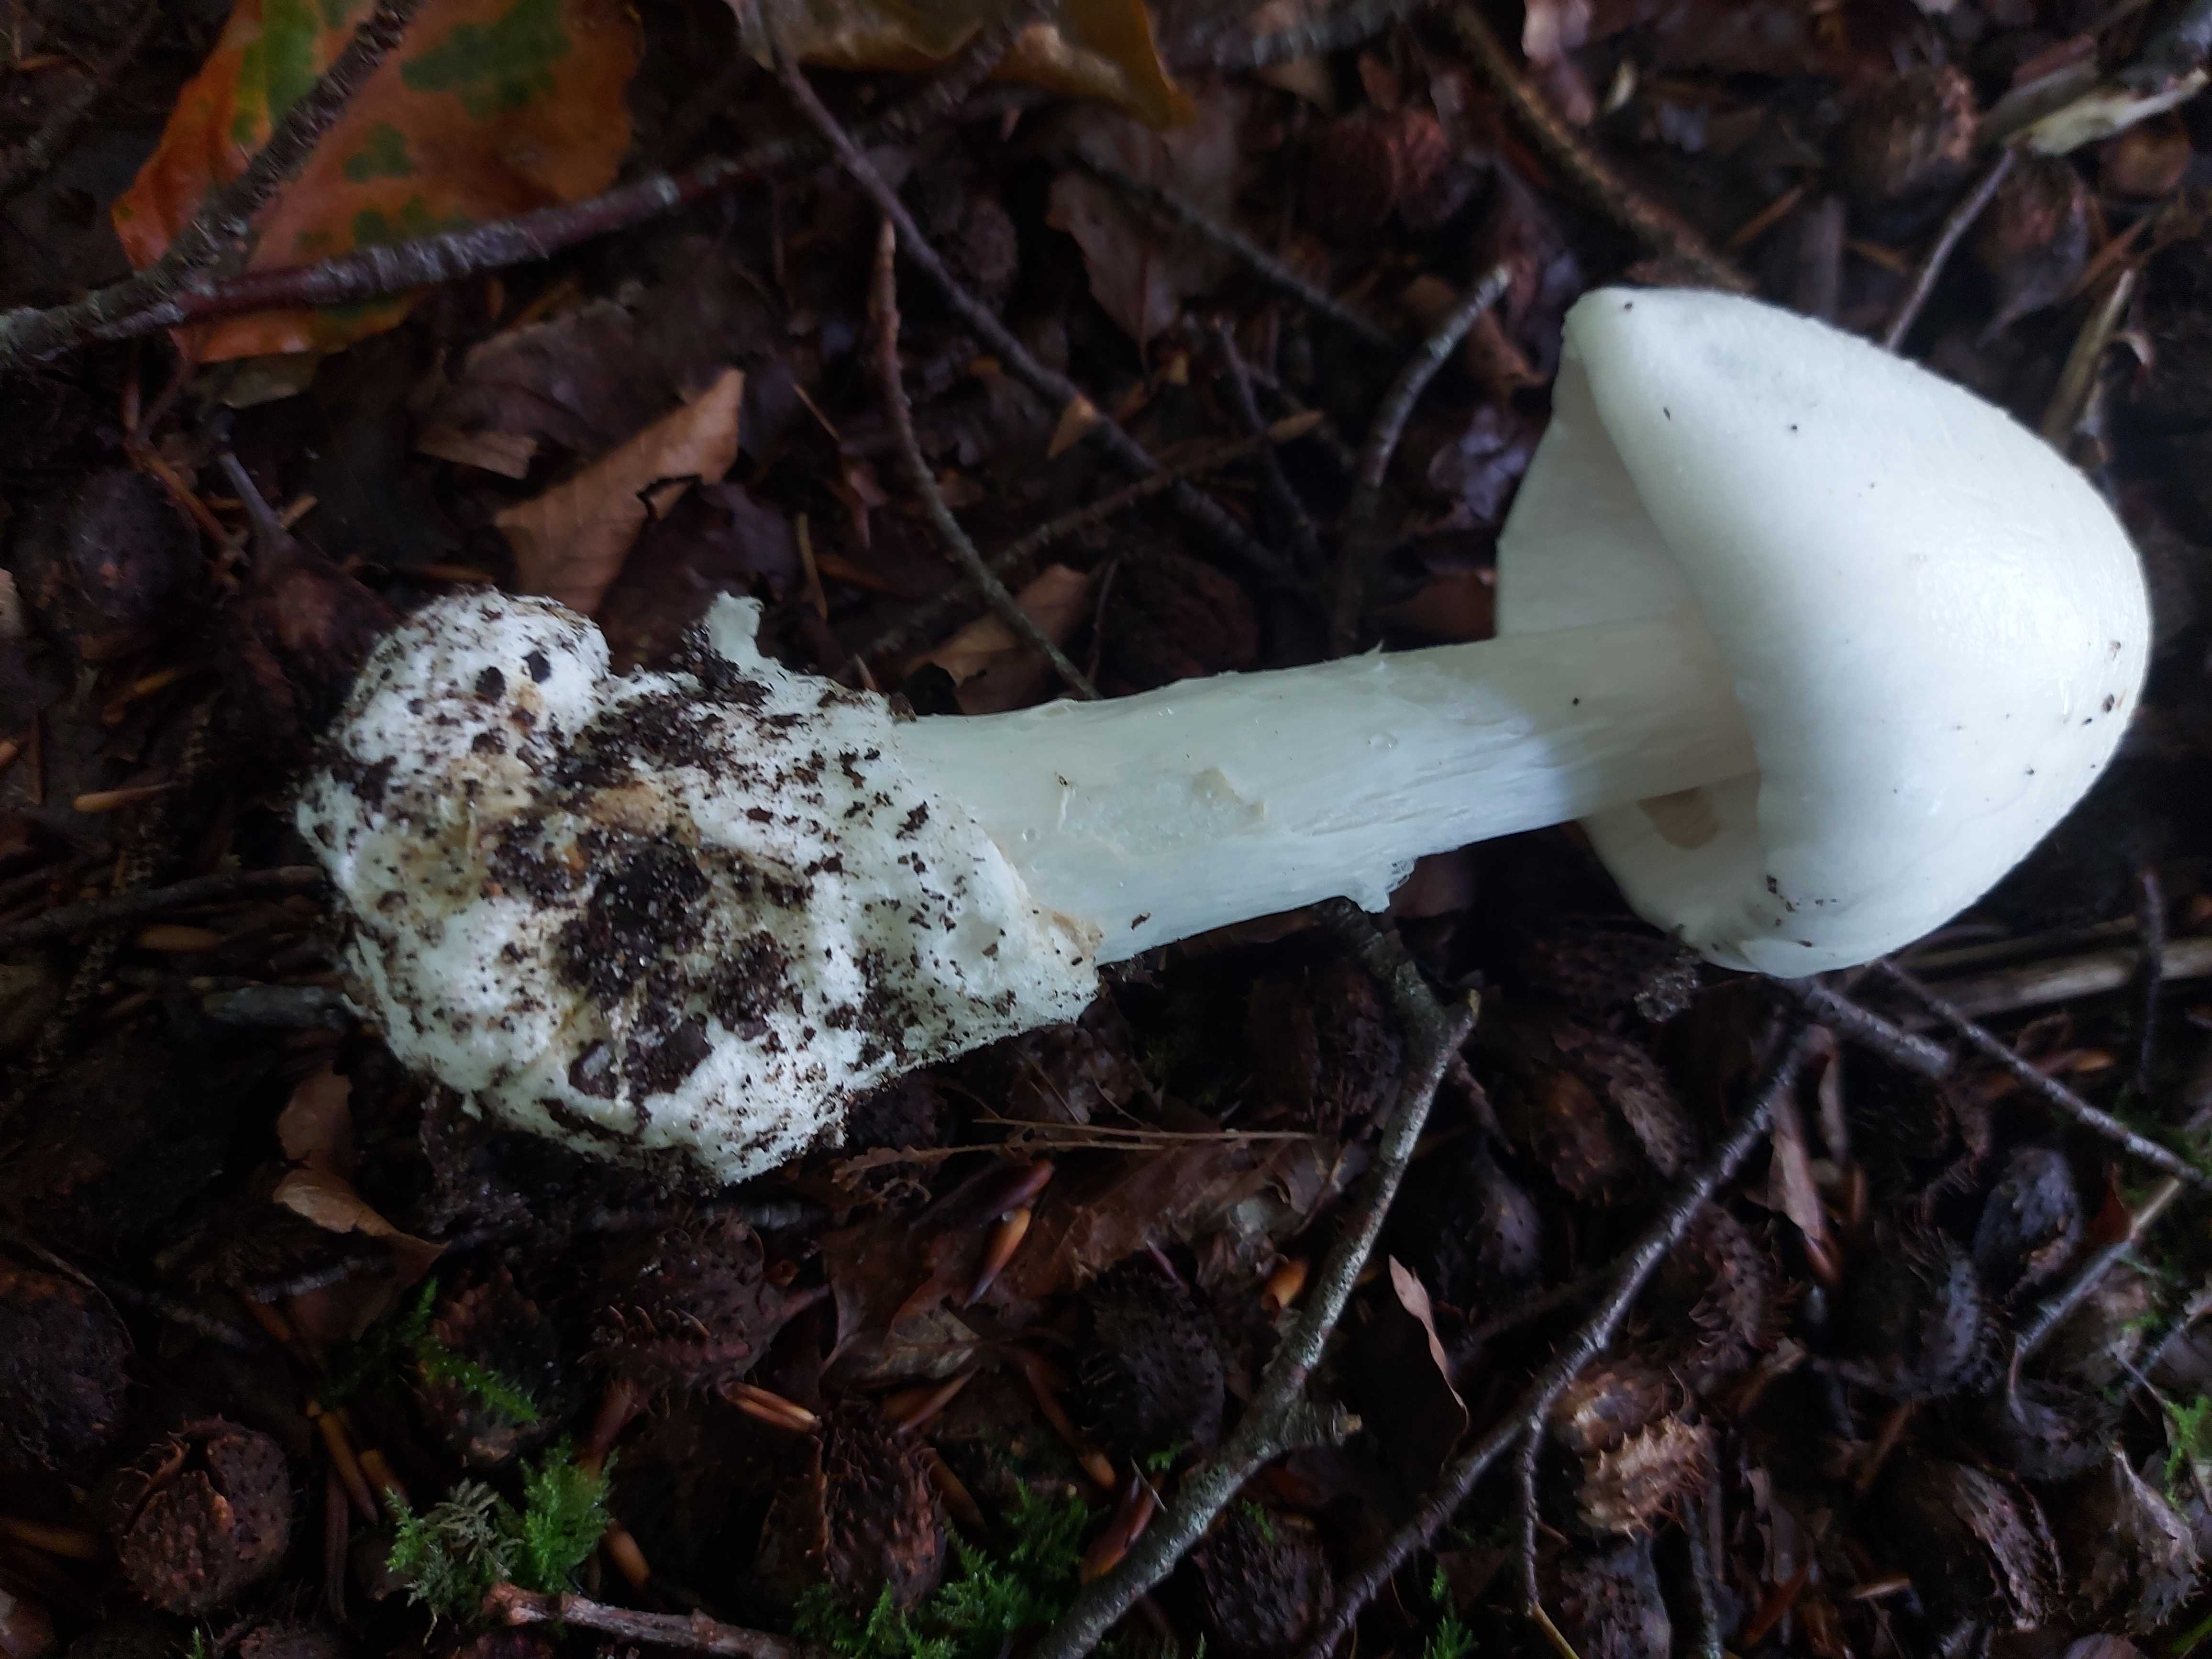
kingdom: Fungi
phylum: Basidiomycota
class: Agaricomycetes
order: Agaricales
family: Amanitaceae
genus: Amanita
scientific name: Amanita virosa
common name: snehvid fluesvamp
